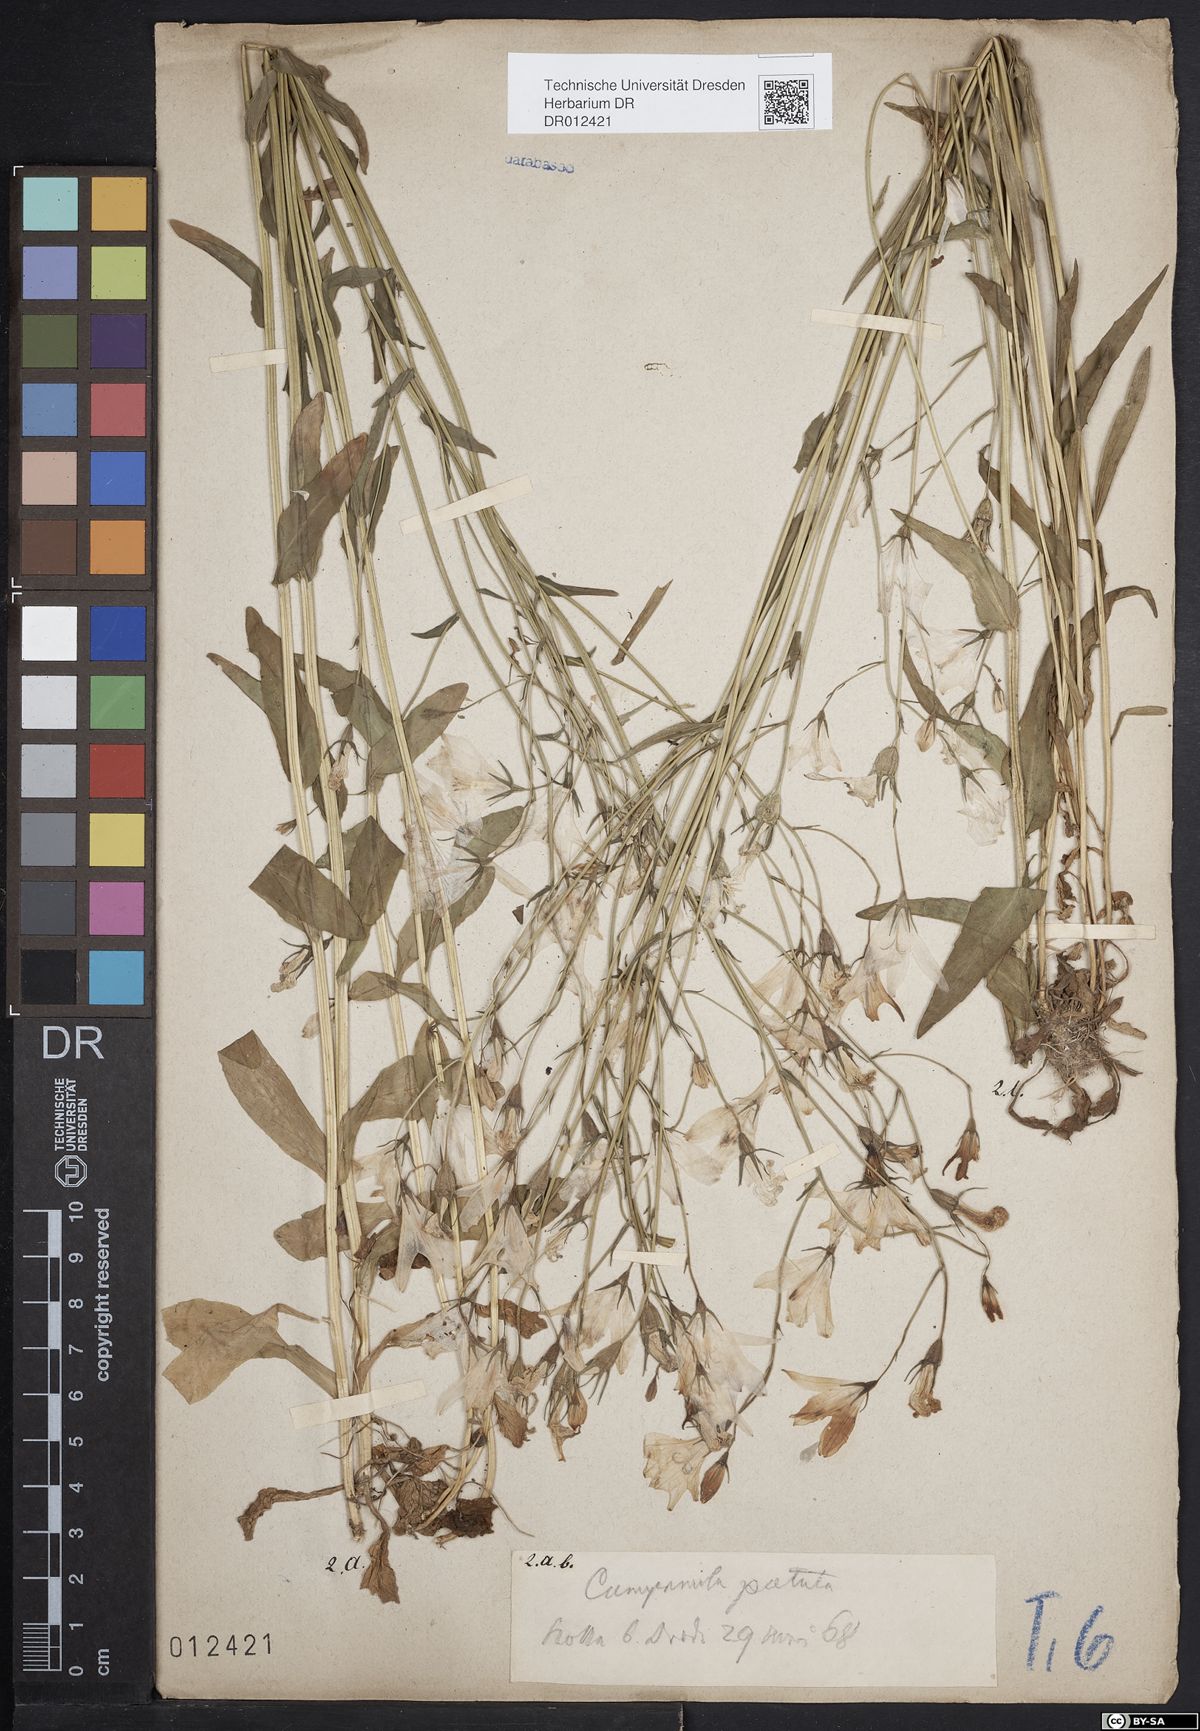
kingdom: Plantae
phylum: Tracheophyta
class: Magnoliopsida
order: Asterales
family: Campanulaceae
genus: Campanula
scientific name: Campanula patula
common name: Spreading bellflower
